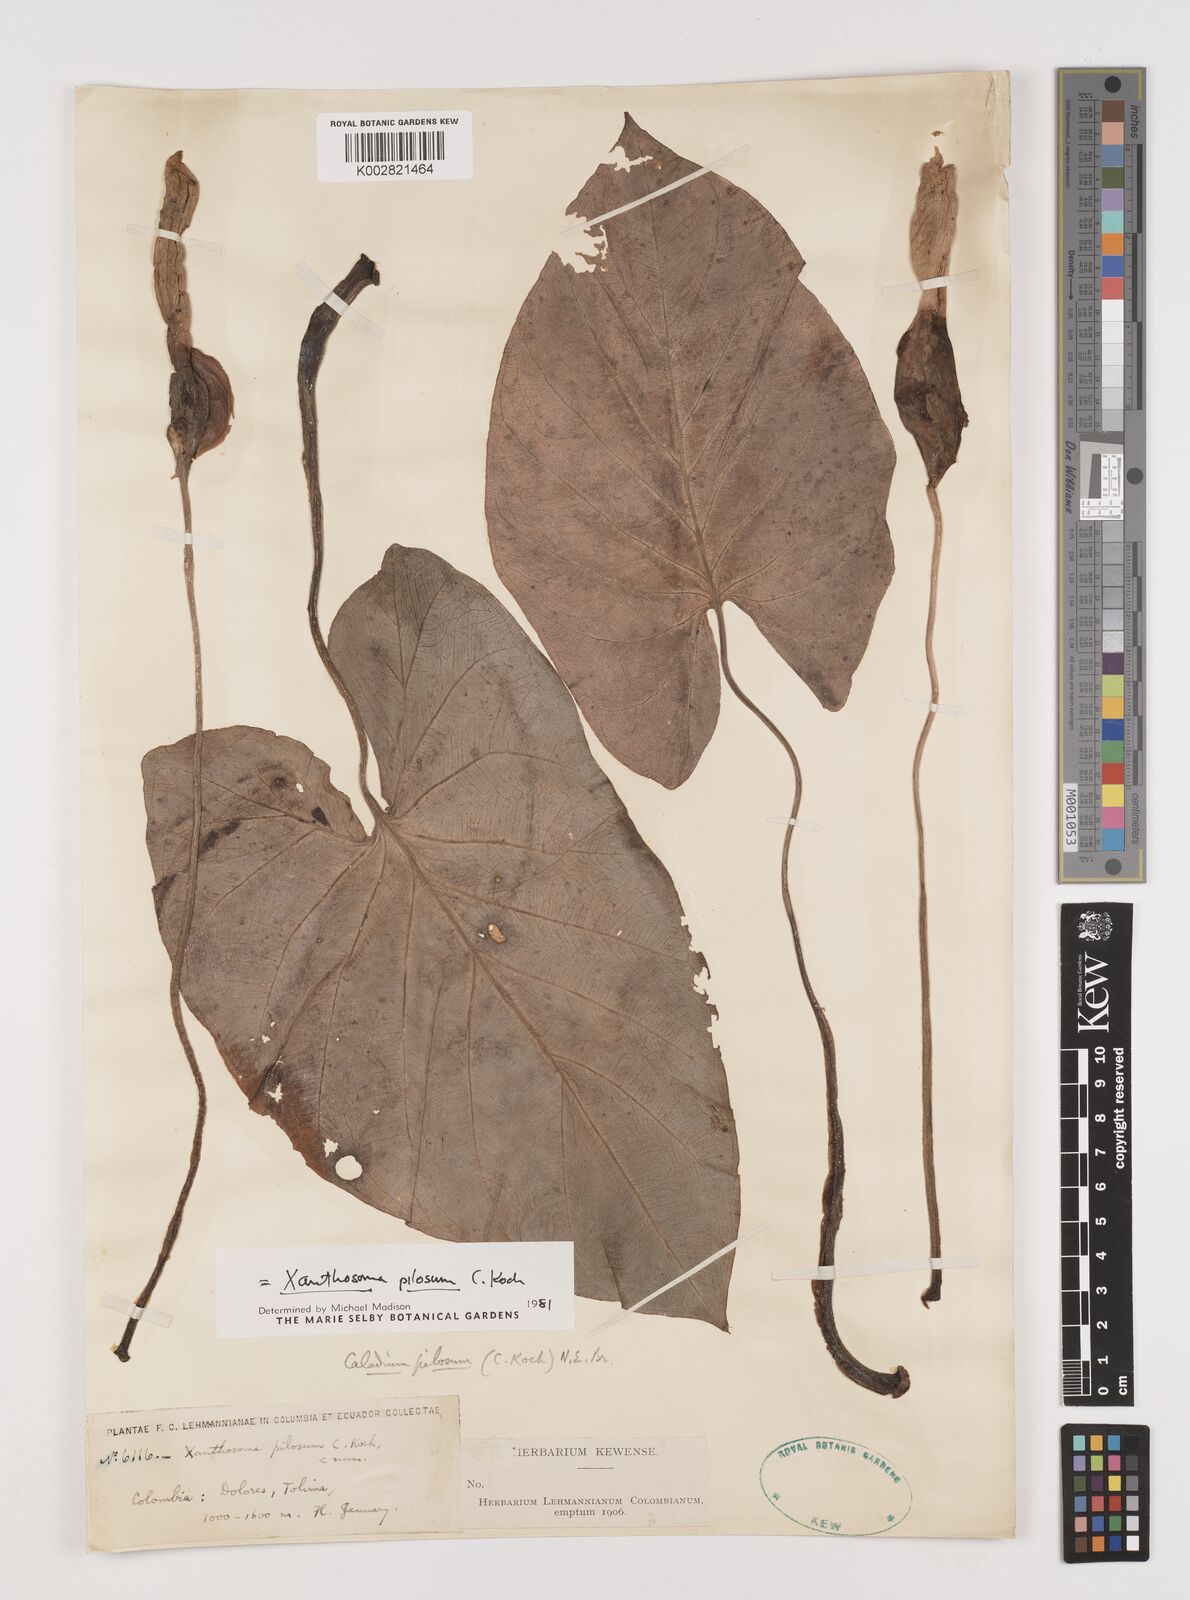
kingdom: Plantae
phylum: Tracheophyta
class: Liliopsida
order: Alismatales
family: Araceae
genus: Xanthosoma
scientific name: Xanthosoma mexicanum
